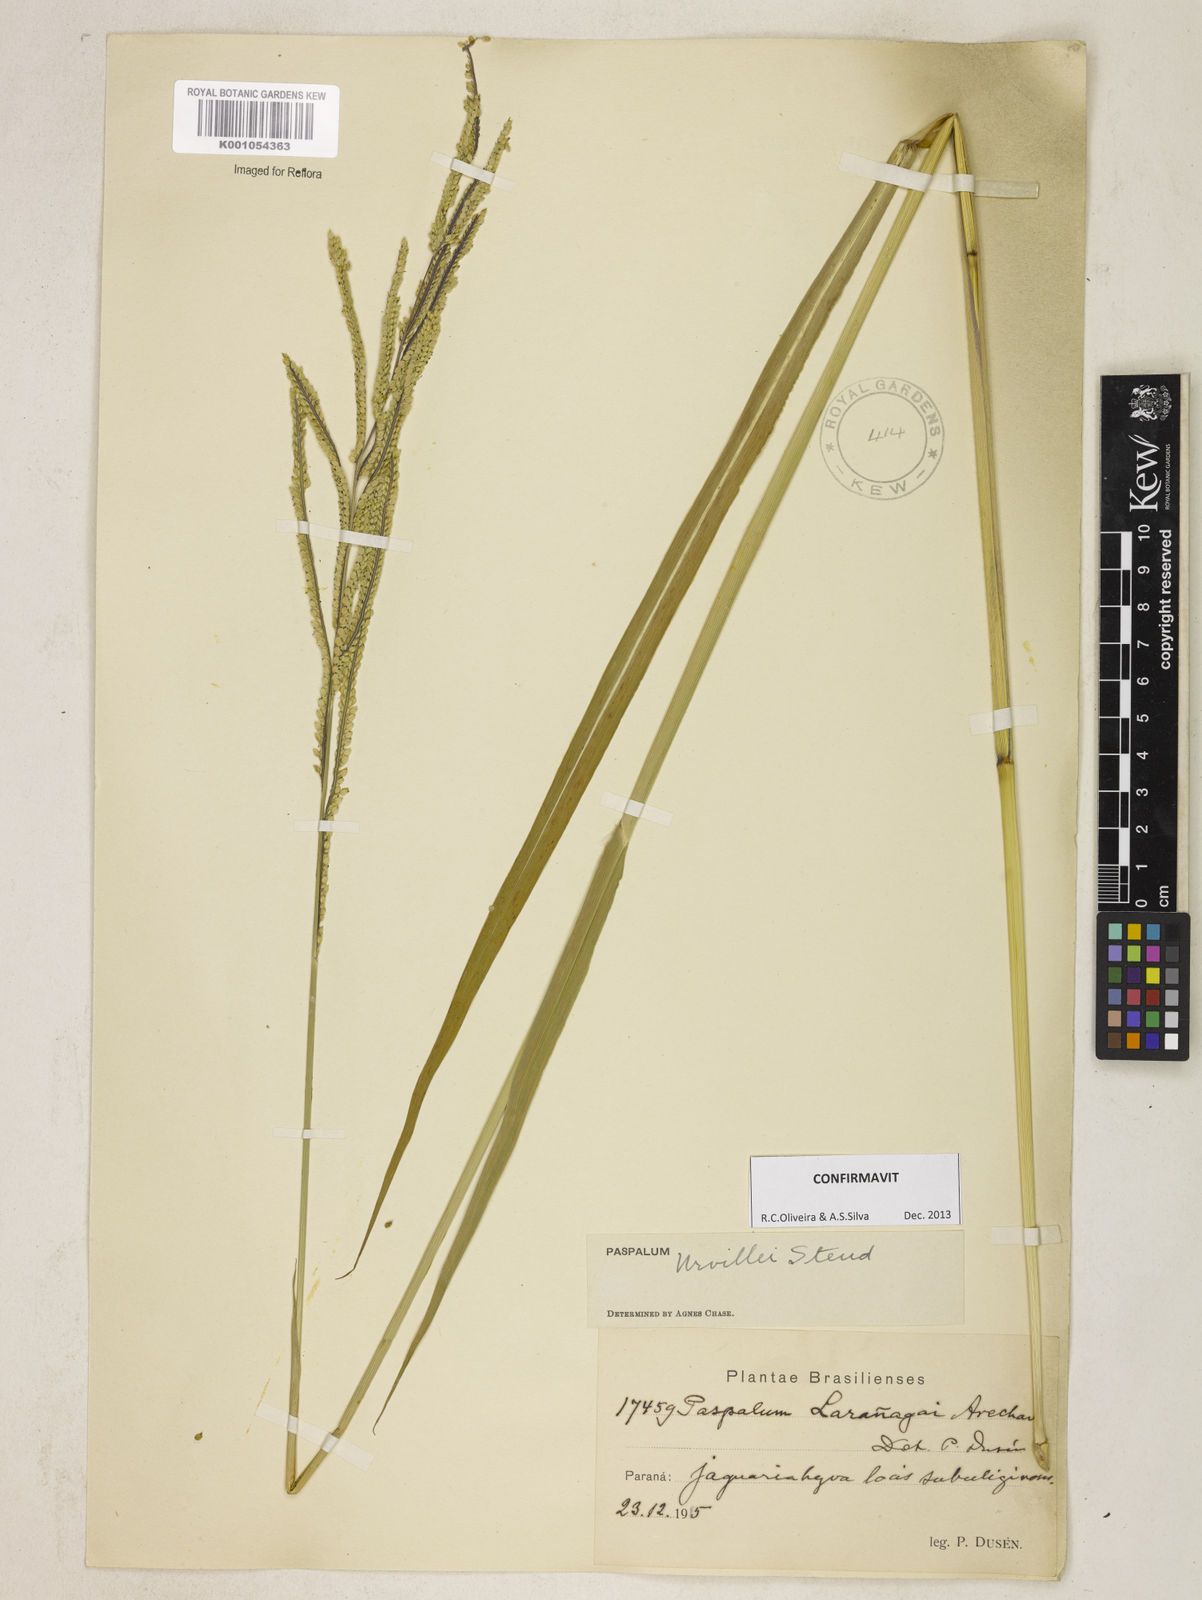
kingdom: Plantae
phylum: Tracheophyta
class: Liliopsida
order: Poales
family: Poaceae
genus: Paspalum
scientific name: Paspalum urvillei
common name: Vasey's grass
